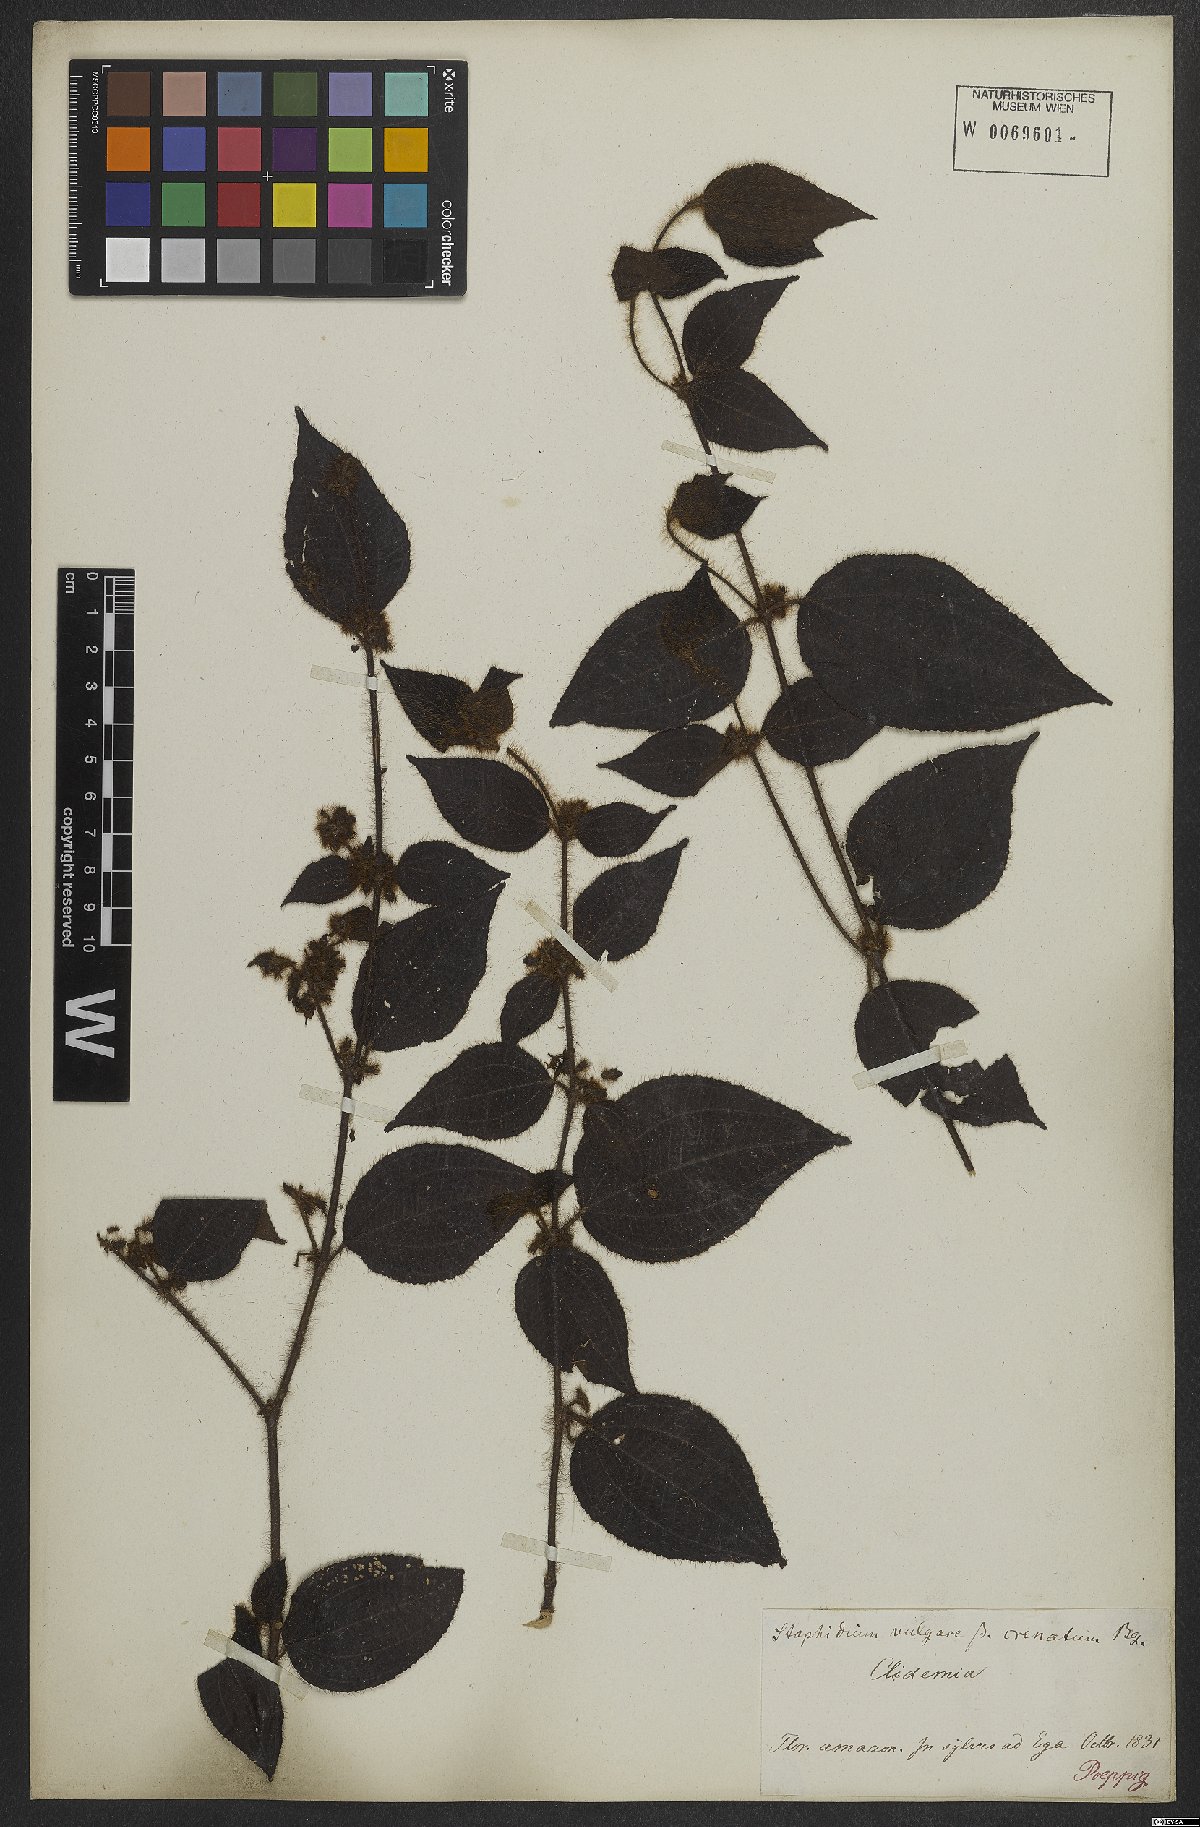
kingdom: Plantae
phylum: Tracheophyta
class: Magnoliopsida
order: Myrtales
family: Melastomataceae
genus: Miconia
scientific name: Miconia crenata
